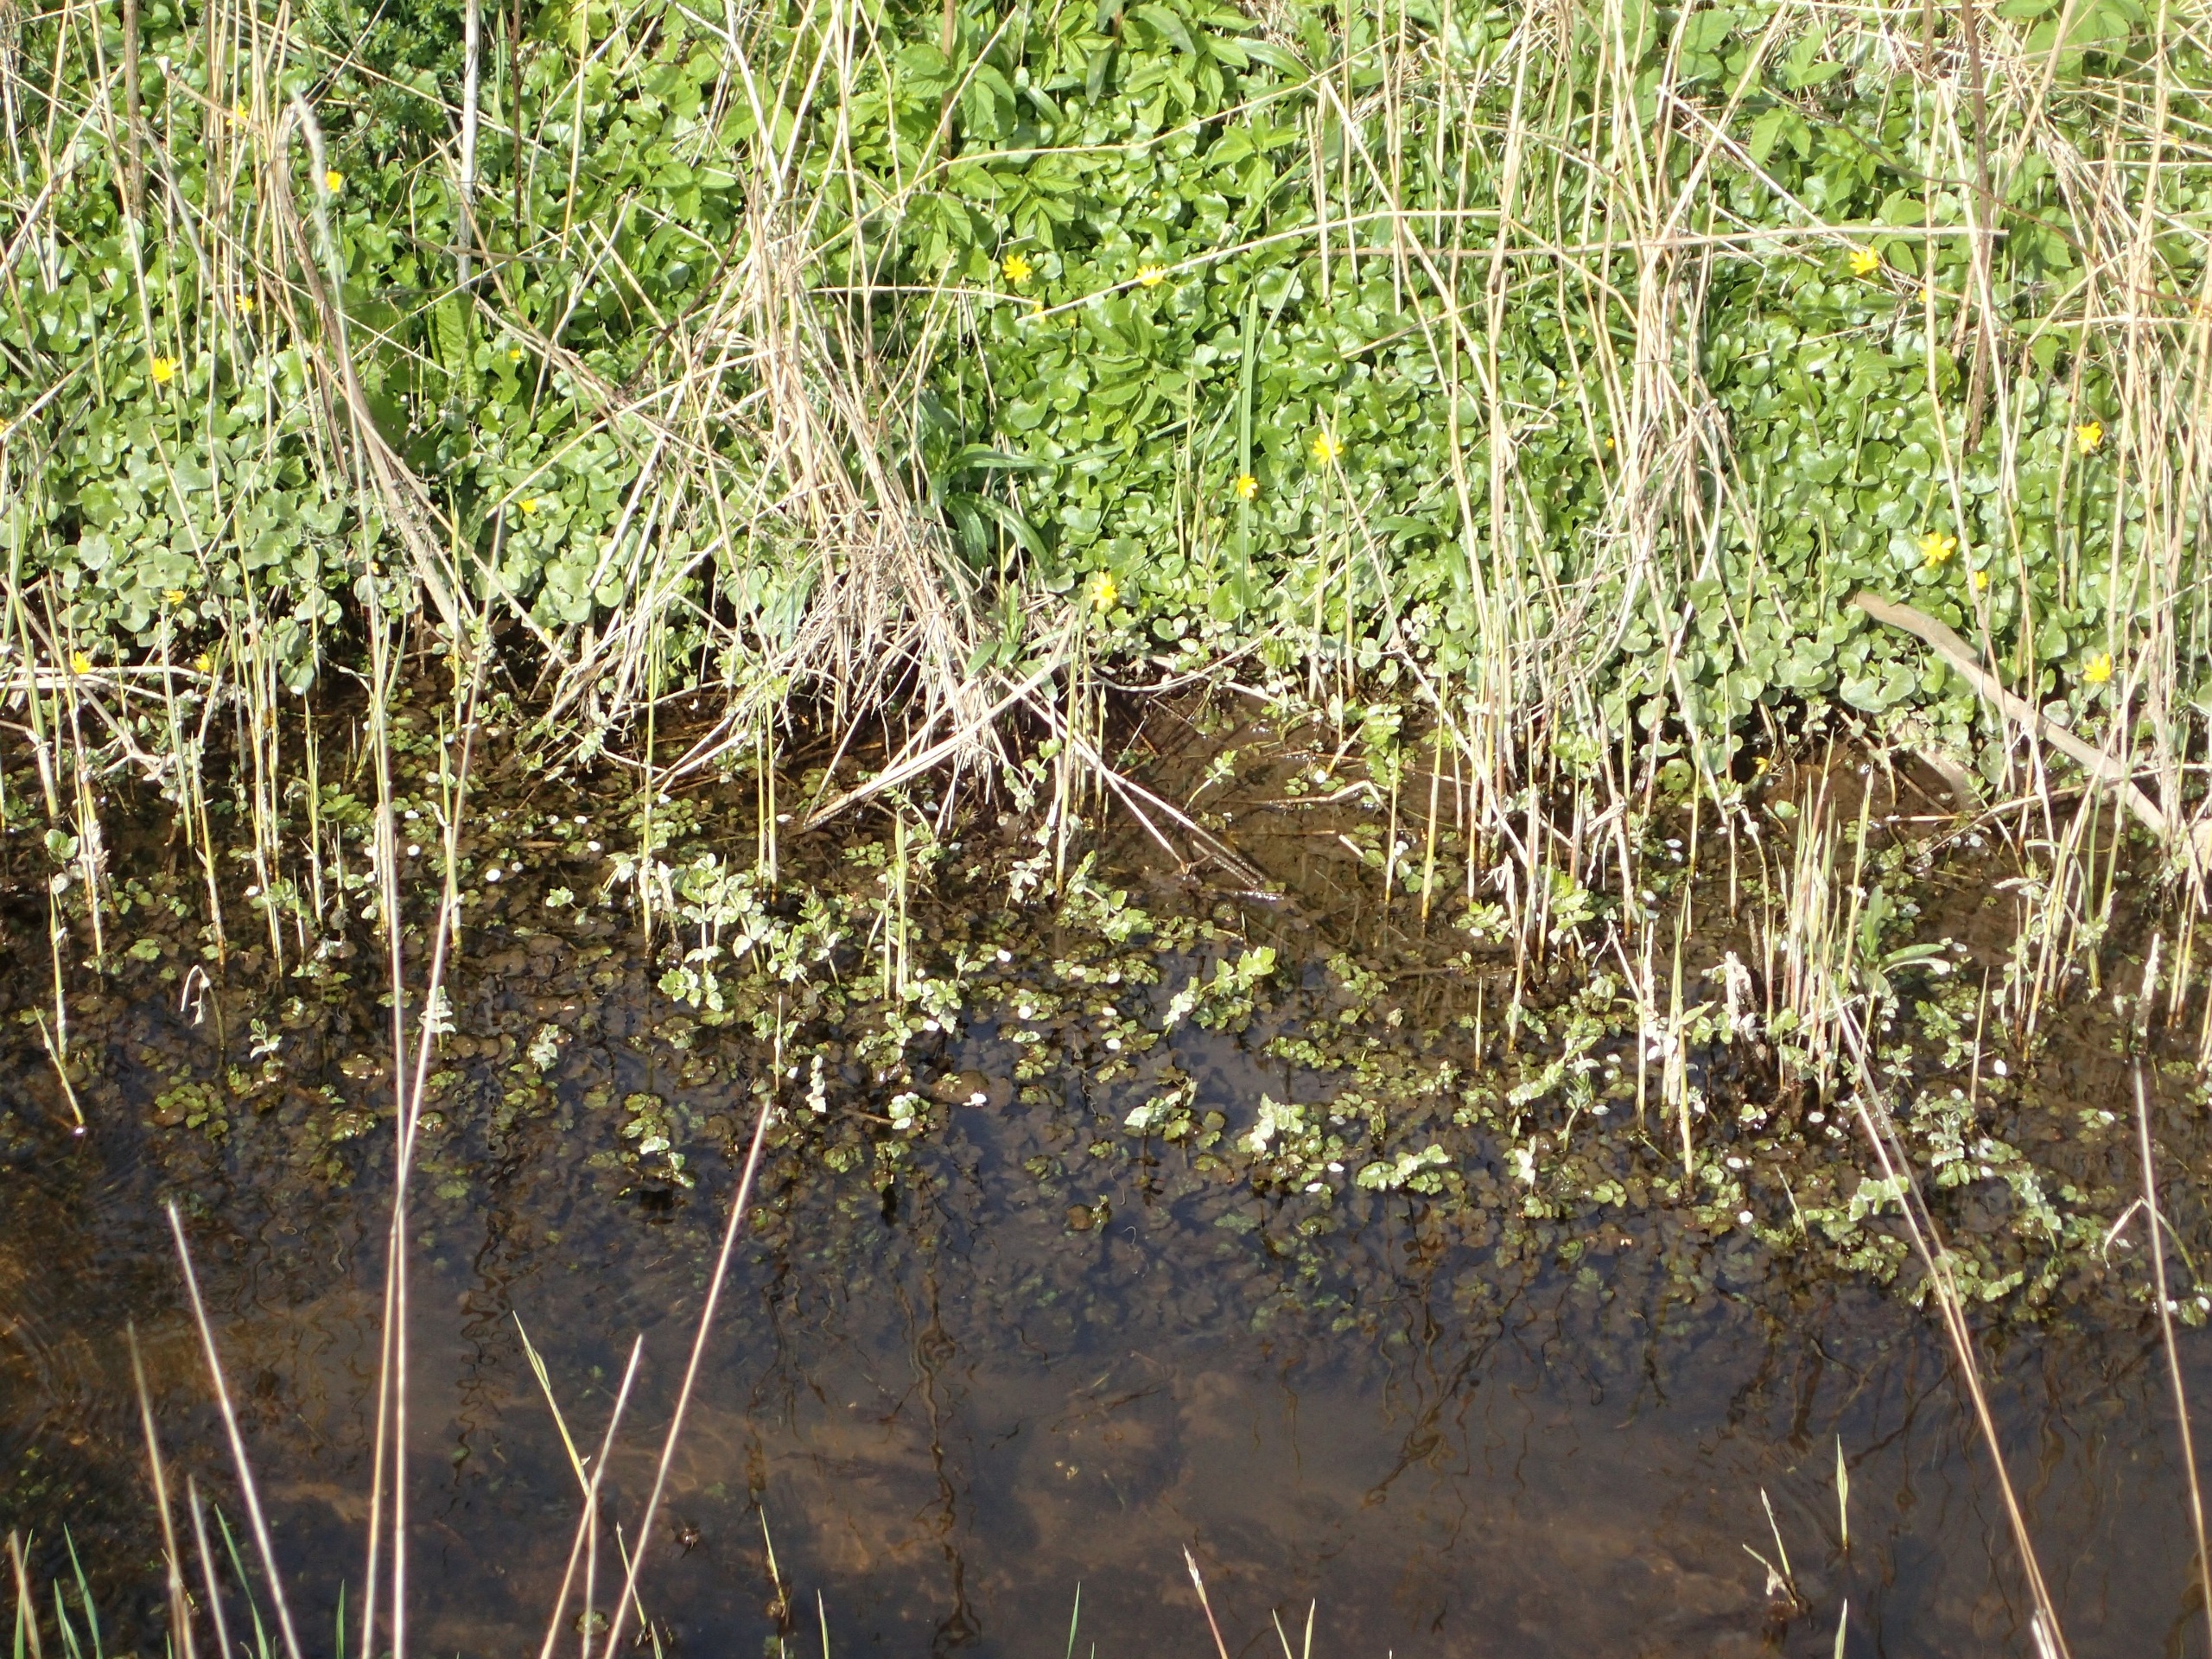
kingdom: Plantae
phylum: Tracheophyta
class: Magnoliopsida
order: Apiales
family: Apiaceae
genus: Berula
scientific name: Berula erecta
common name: Sideskærm
